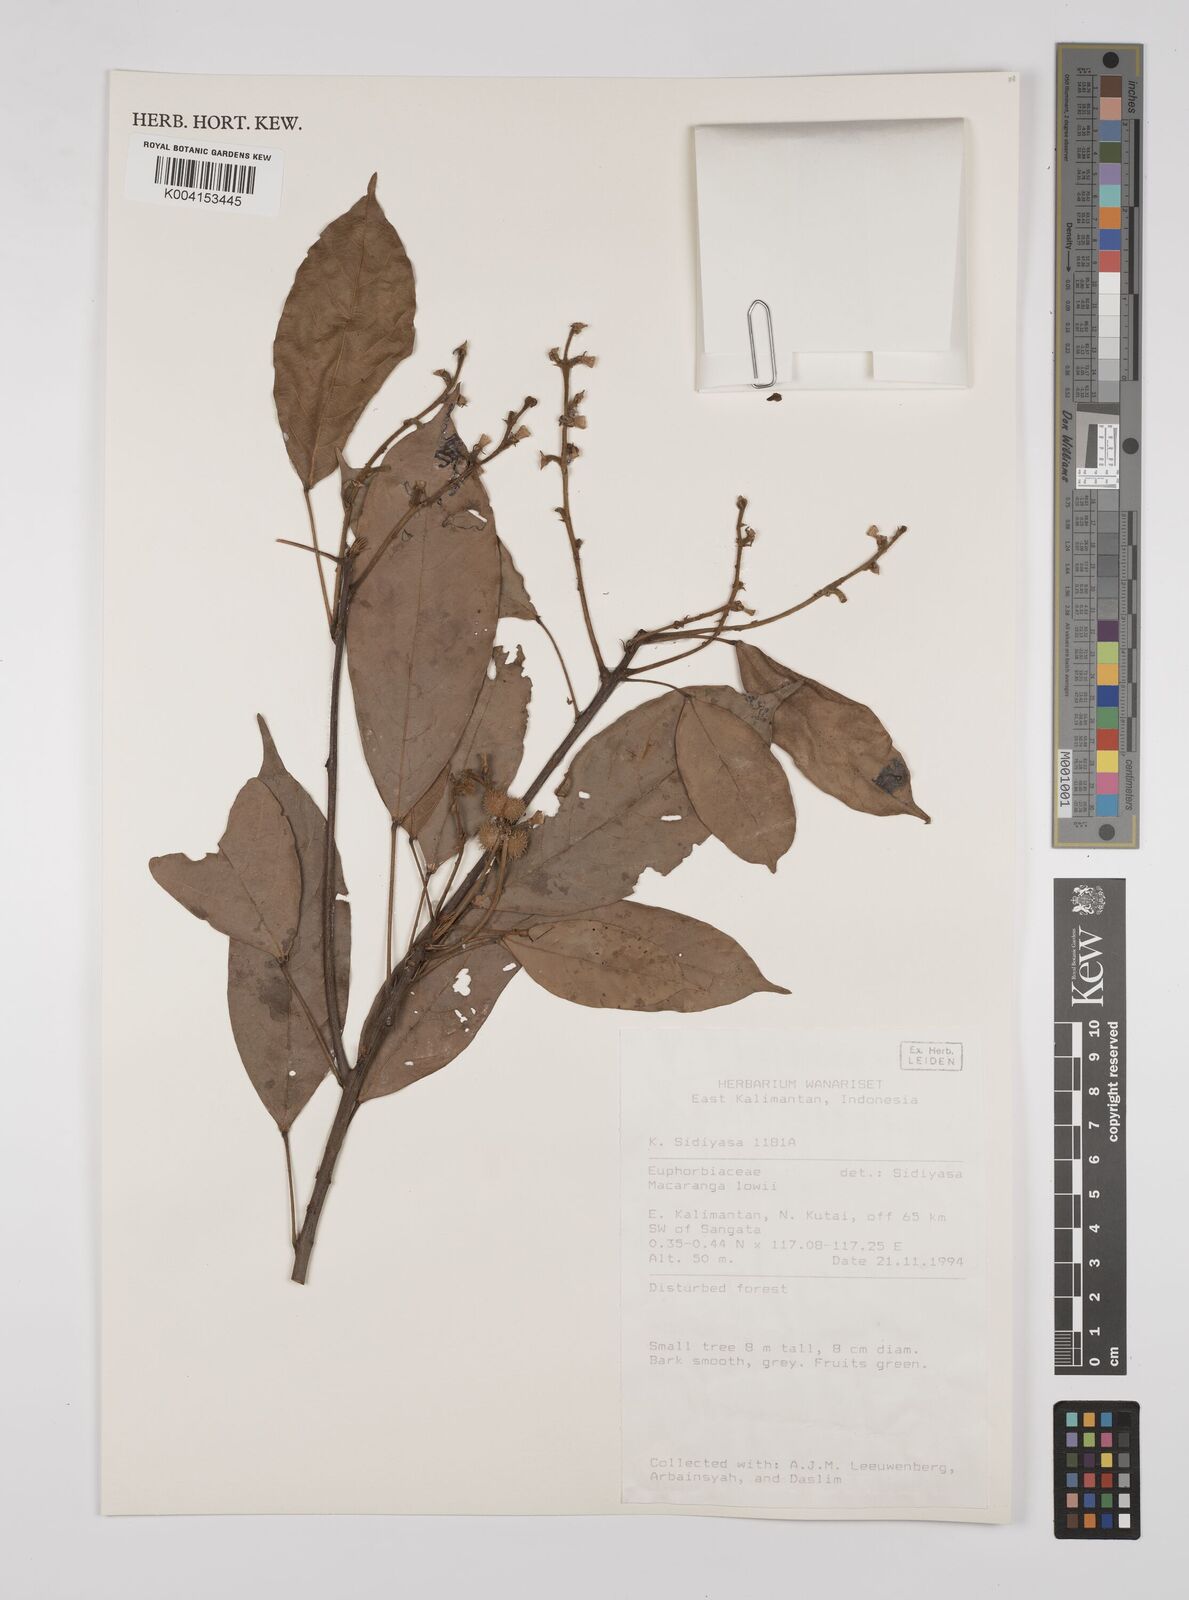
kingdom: Plantae
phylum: Tracheophyta
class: Magnoliopsida
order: Malpighiales
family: Euphorbiaceae
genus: Macaranga
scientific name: Macaranga lowii
